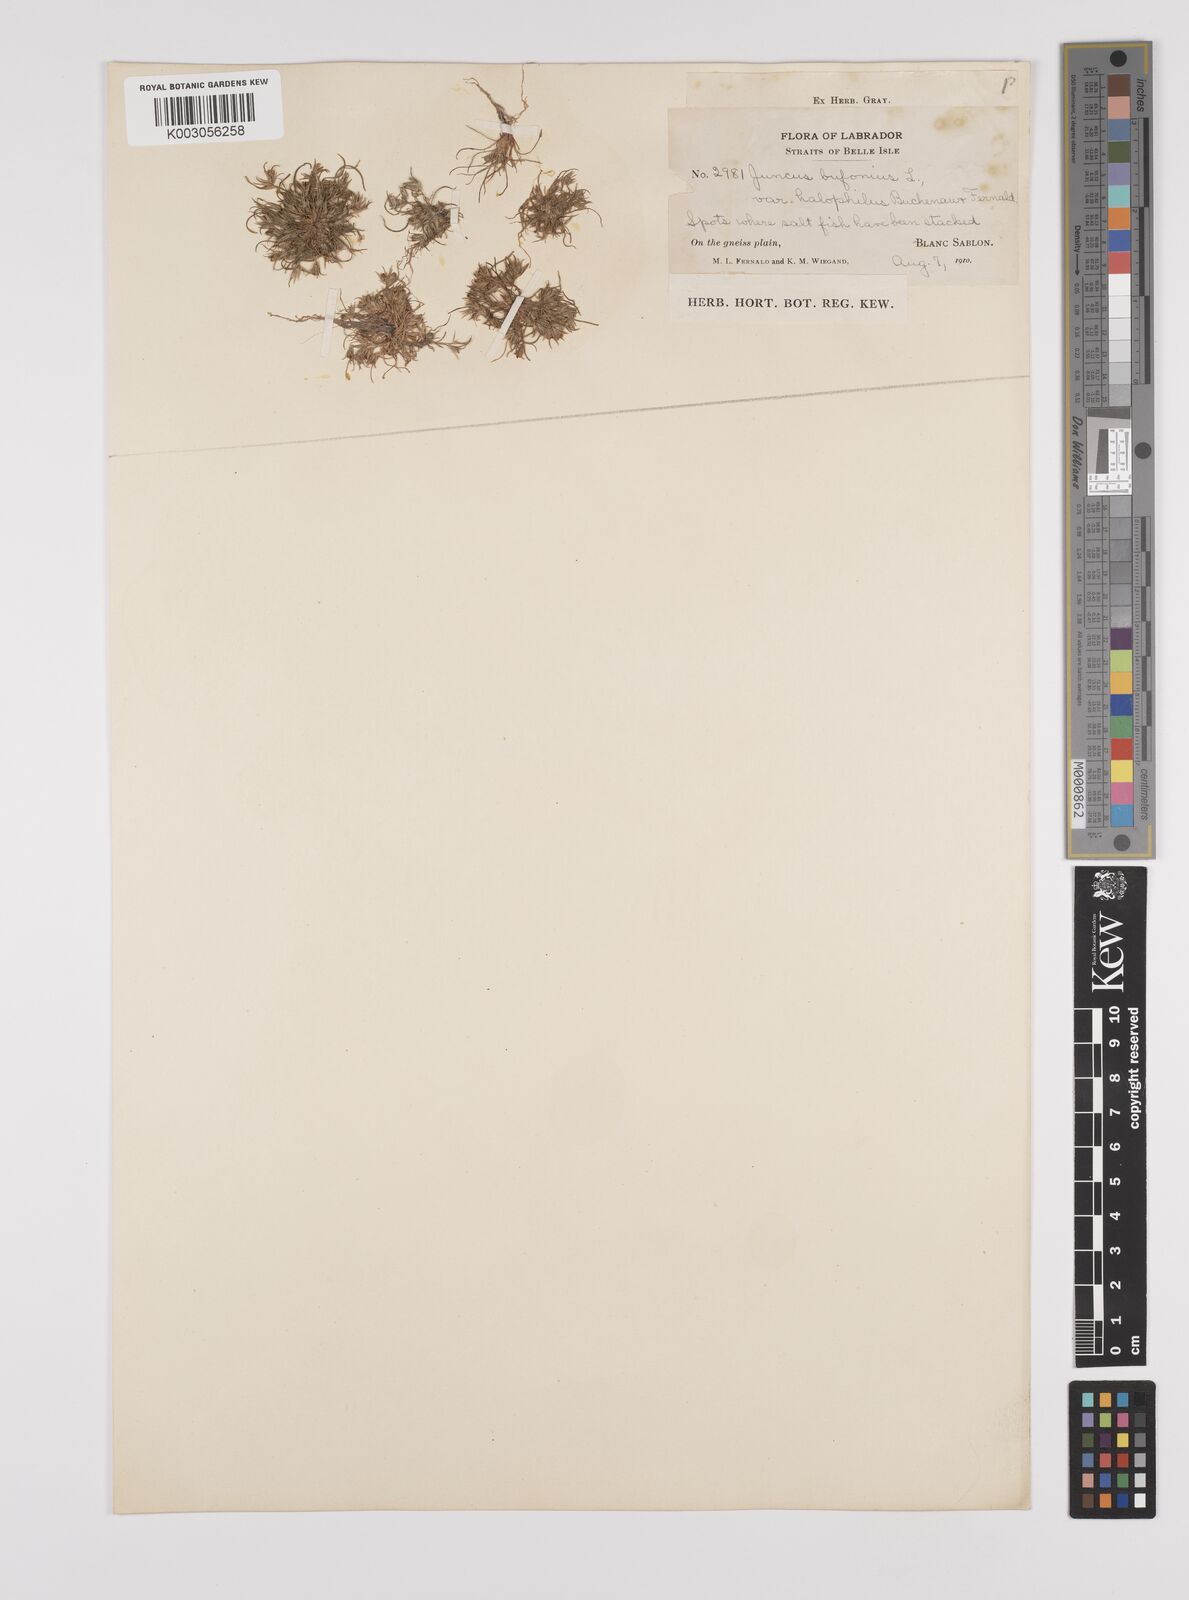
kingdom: Plantae
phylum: Tracheophyta
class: Liliopsida
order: Poales
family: Juncaceae
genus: Juncus
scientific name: Juncus ranarius
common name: Frog rush
